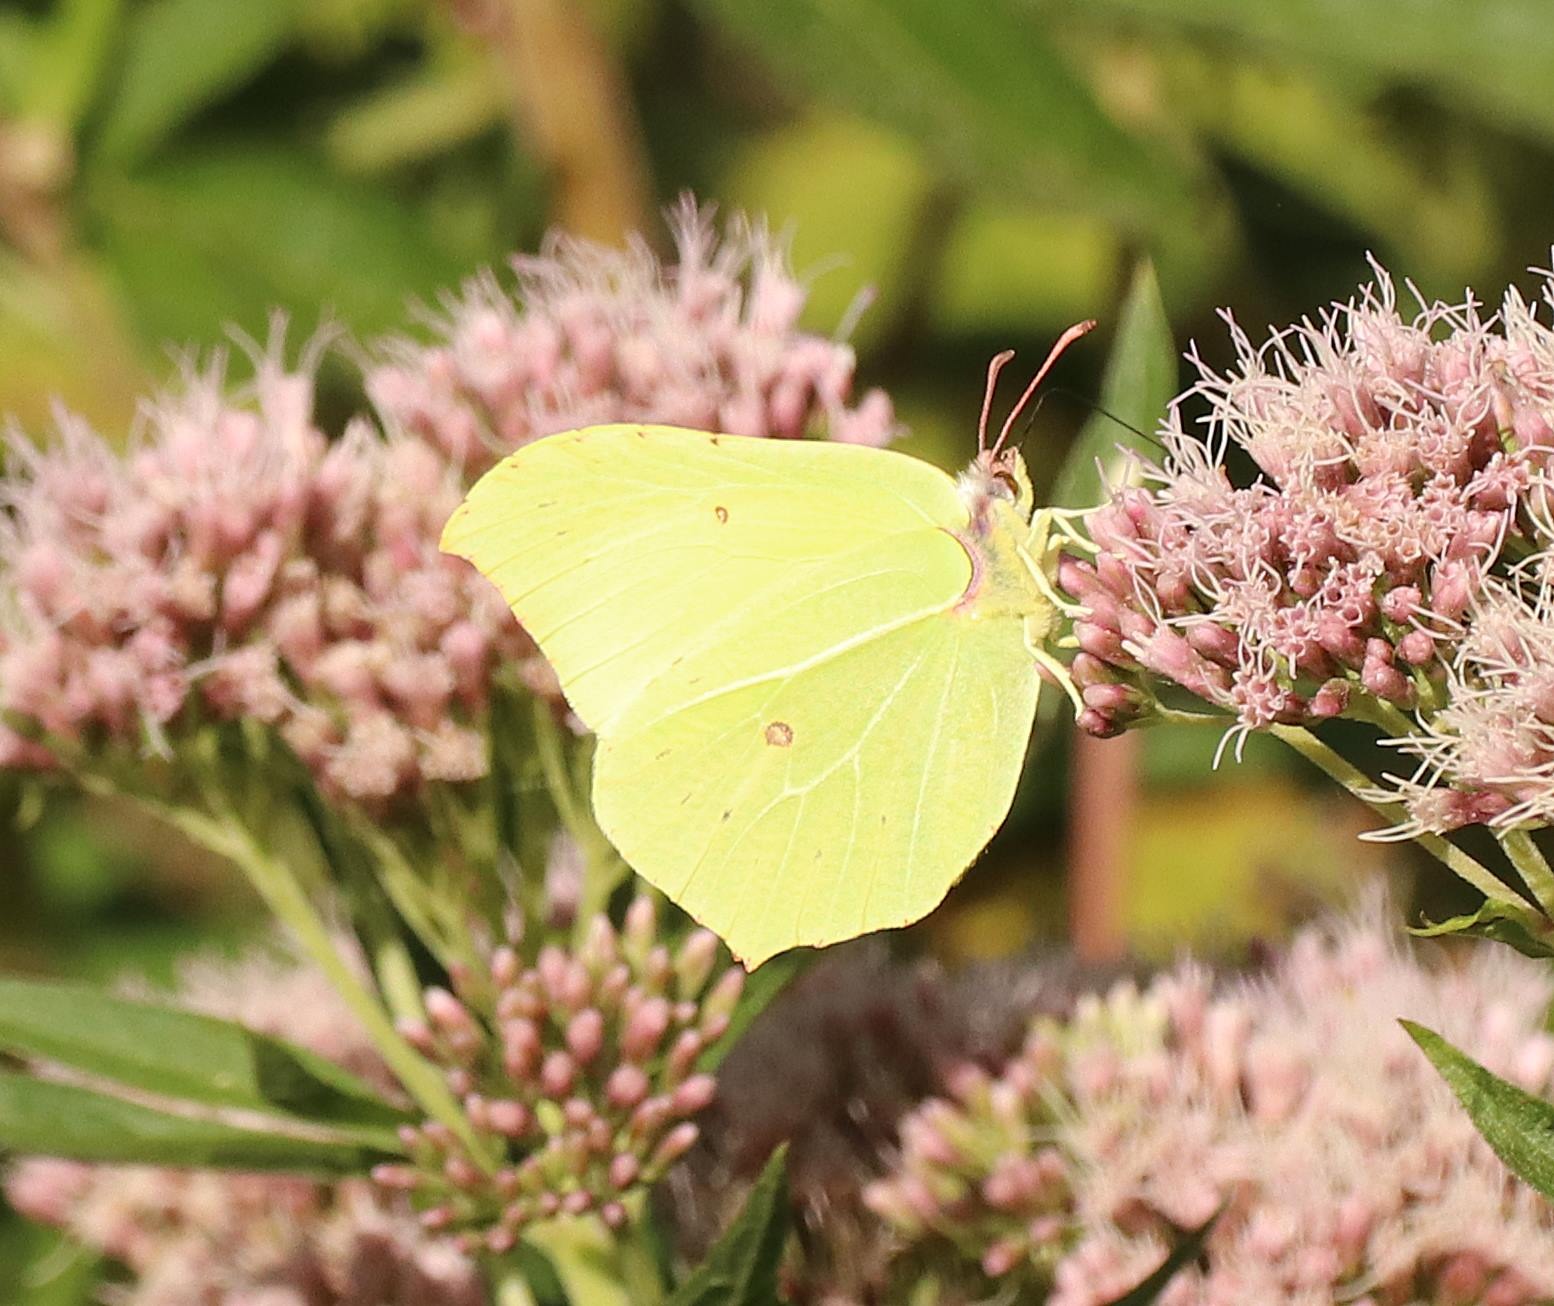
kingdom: Animalia
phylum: Arthropoda
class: Insecta
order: Lepidoptera
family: Pieridae
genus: Gonepteryx
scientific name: Gonepteryx rhamni
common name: Citronsommerfugl
